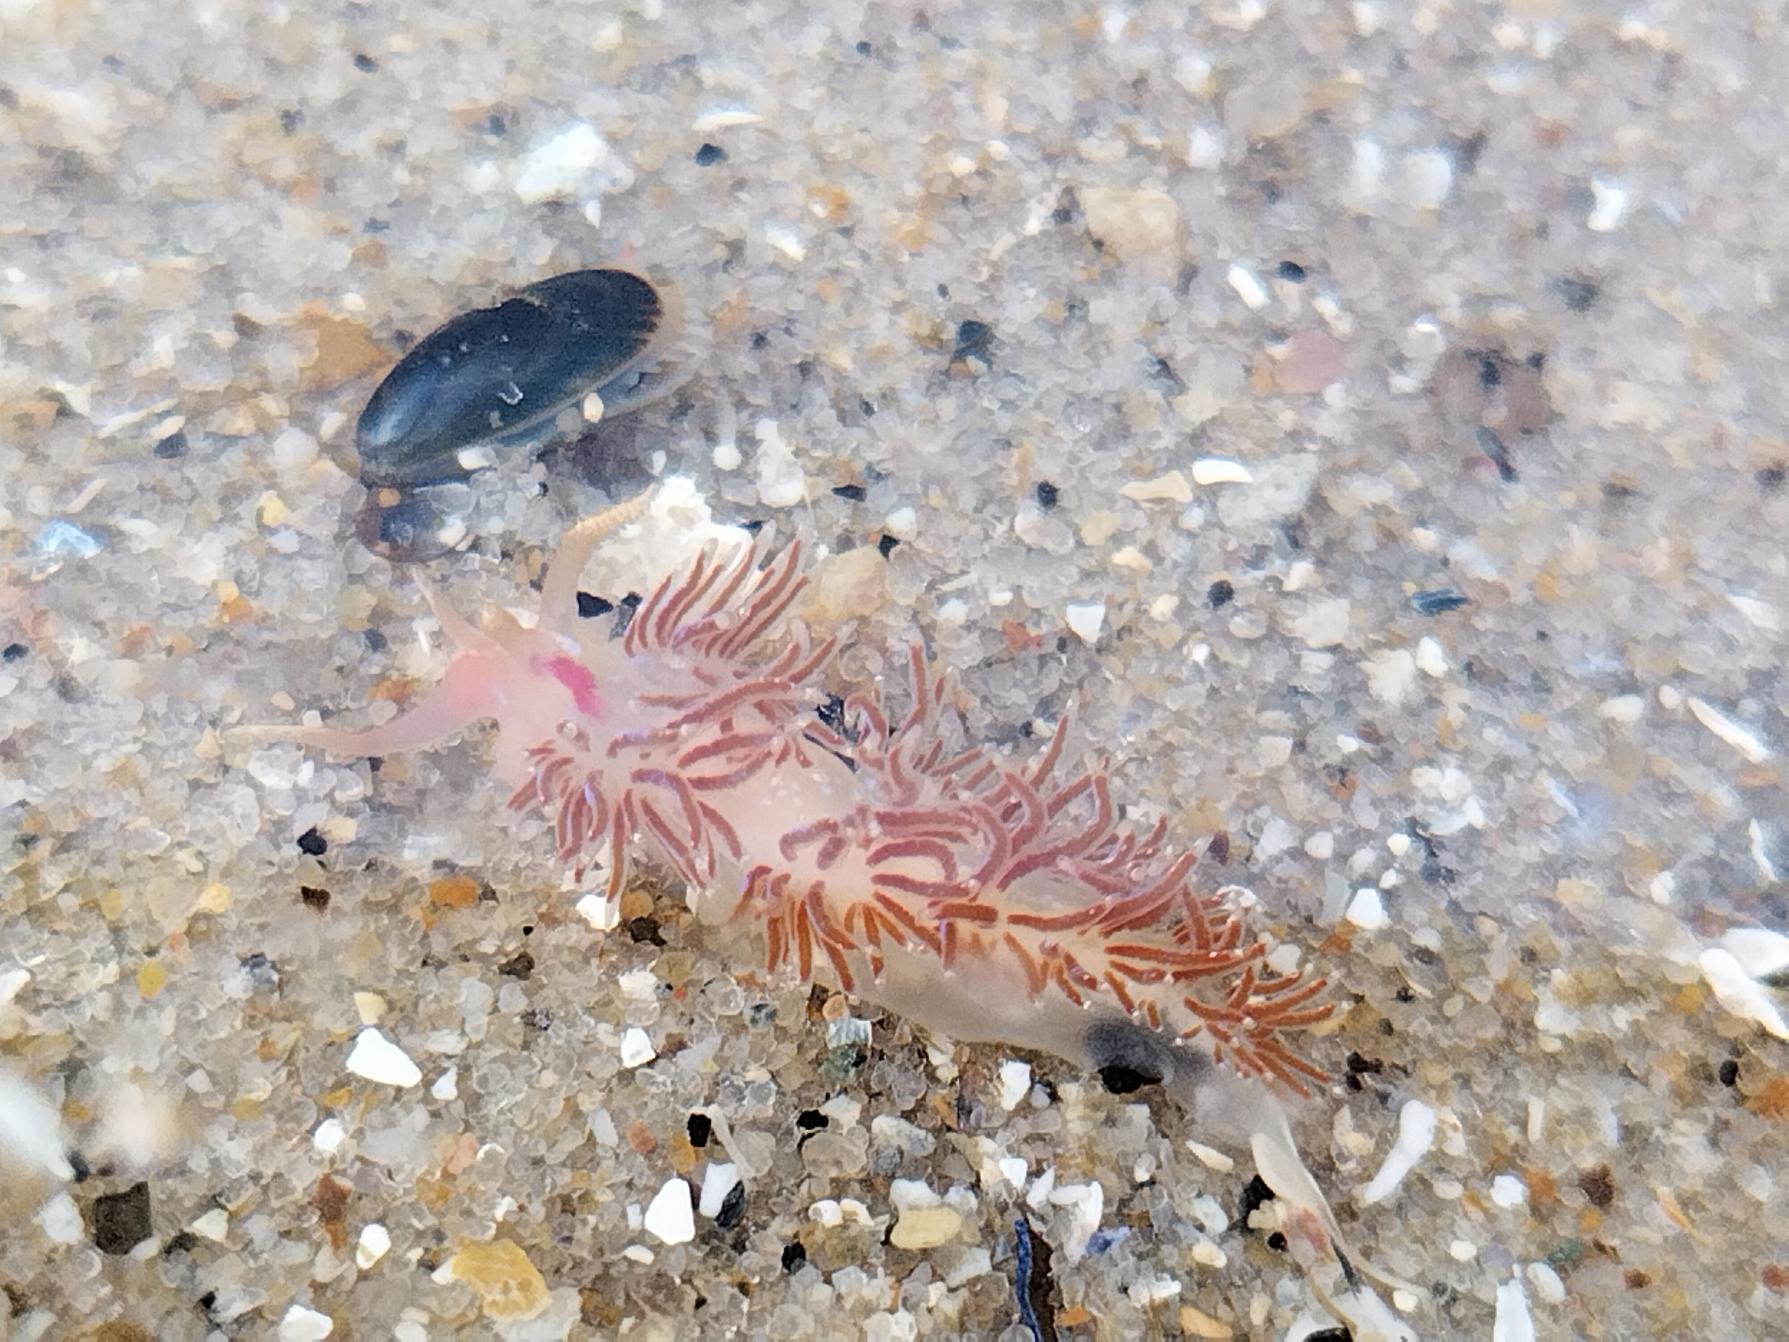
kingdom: Animalia
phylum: Mollusca
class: Gastropoda
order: Nudibranchia
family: Facelinidae
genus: Facelina
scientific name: Facelina auriculata
